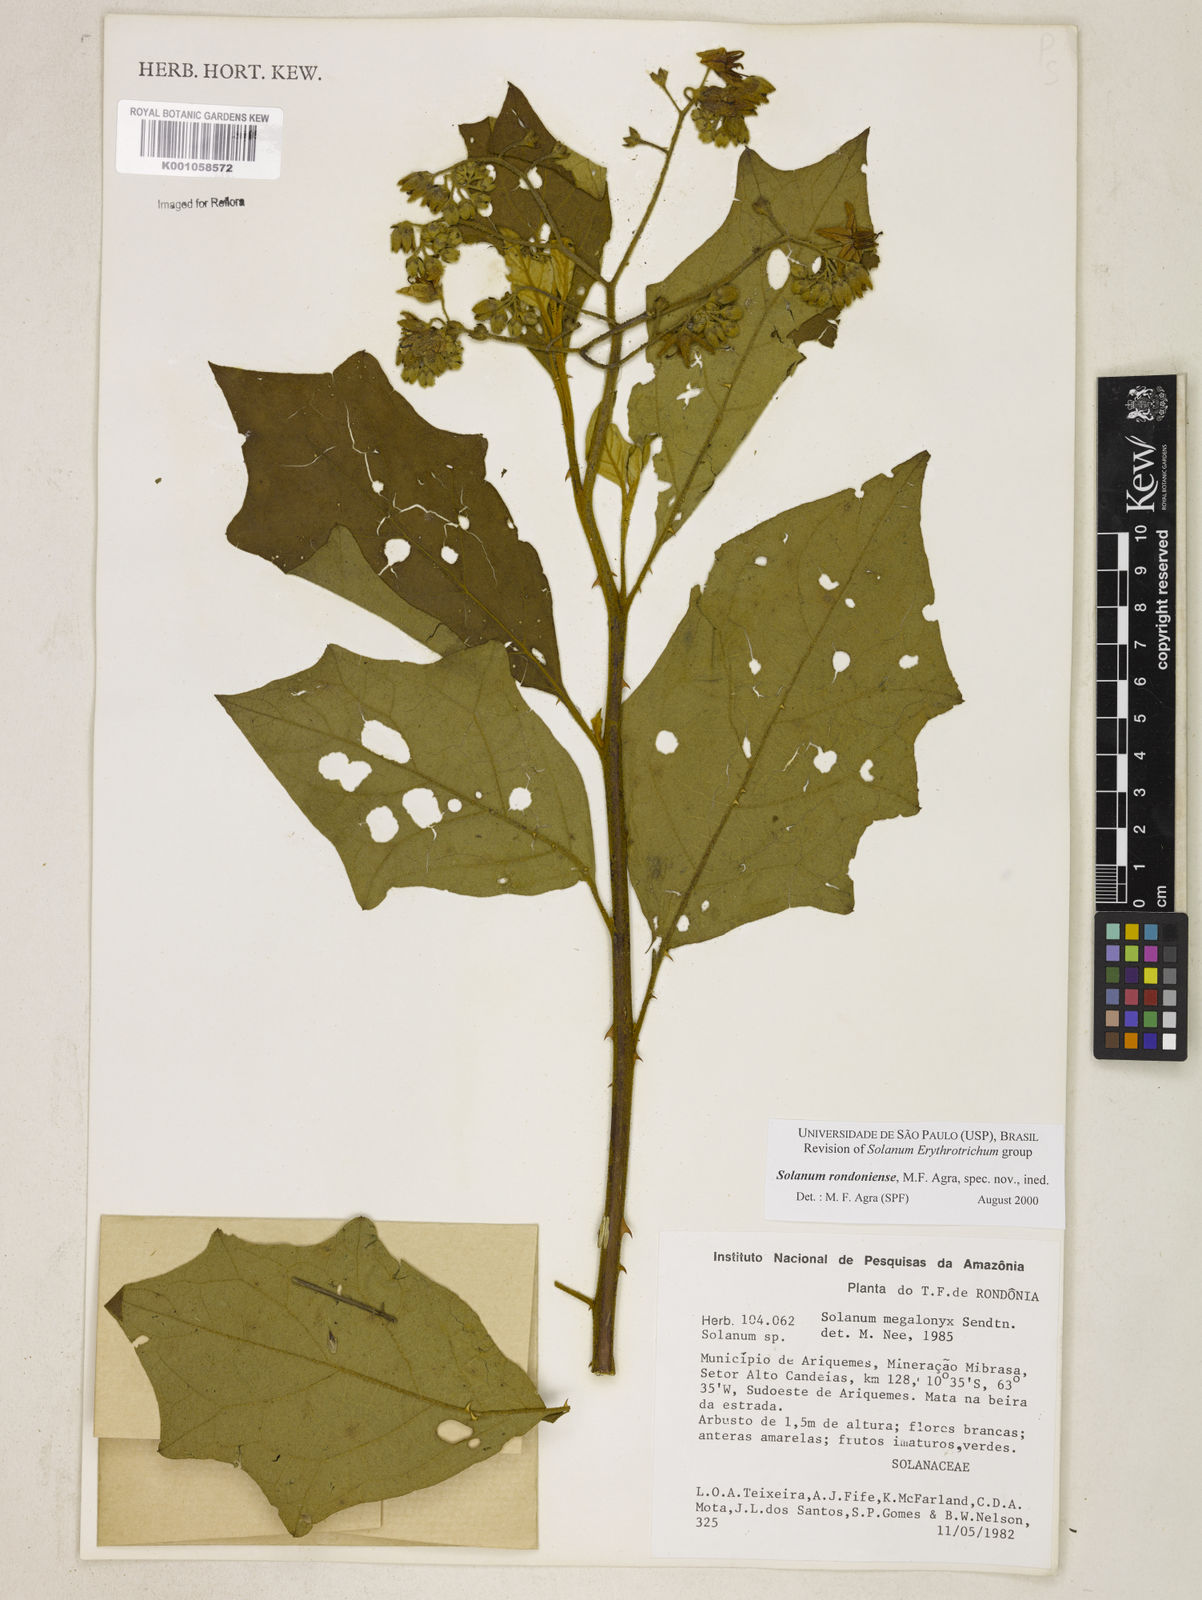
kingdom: Plantae
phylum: Tracheophyta
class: Magnoliopsida
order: Solanales
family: Solanaceae
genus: Solanum
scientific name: Solanum
